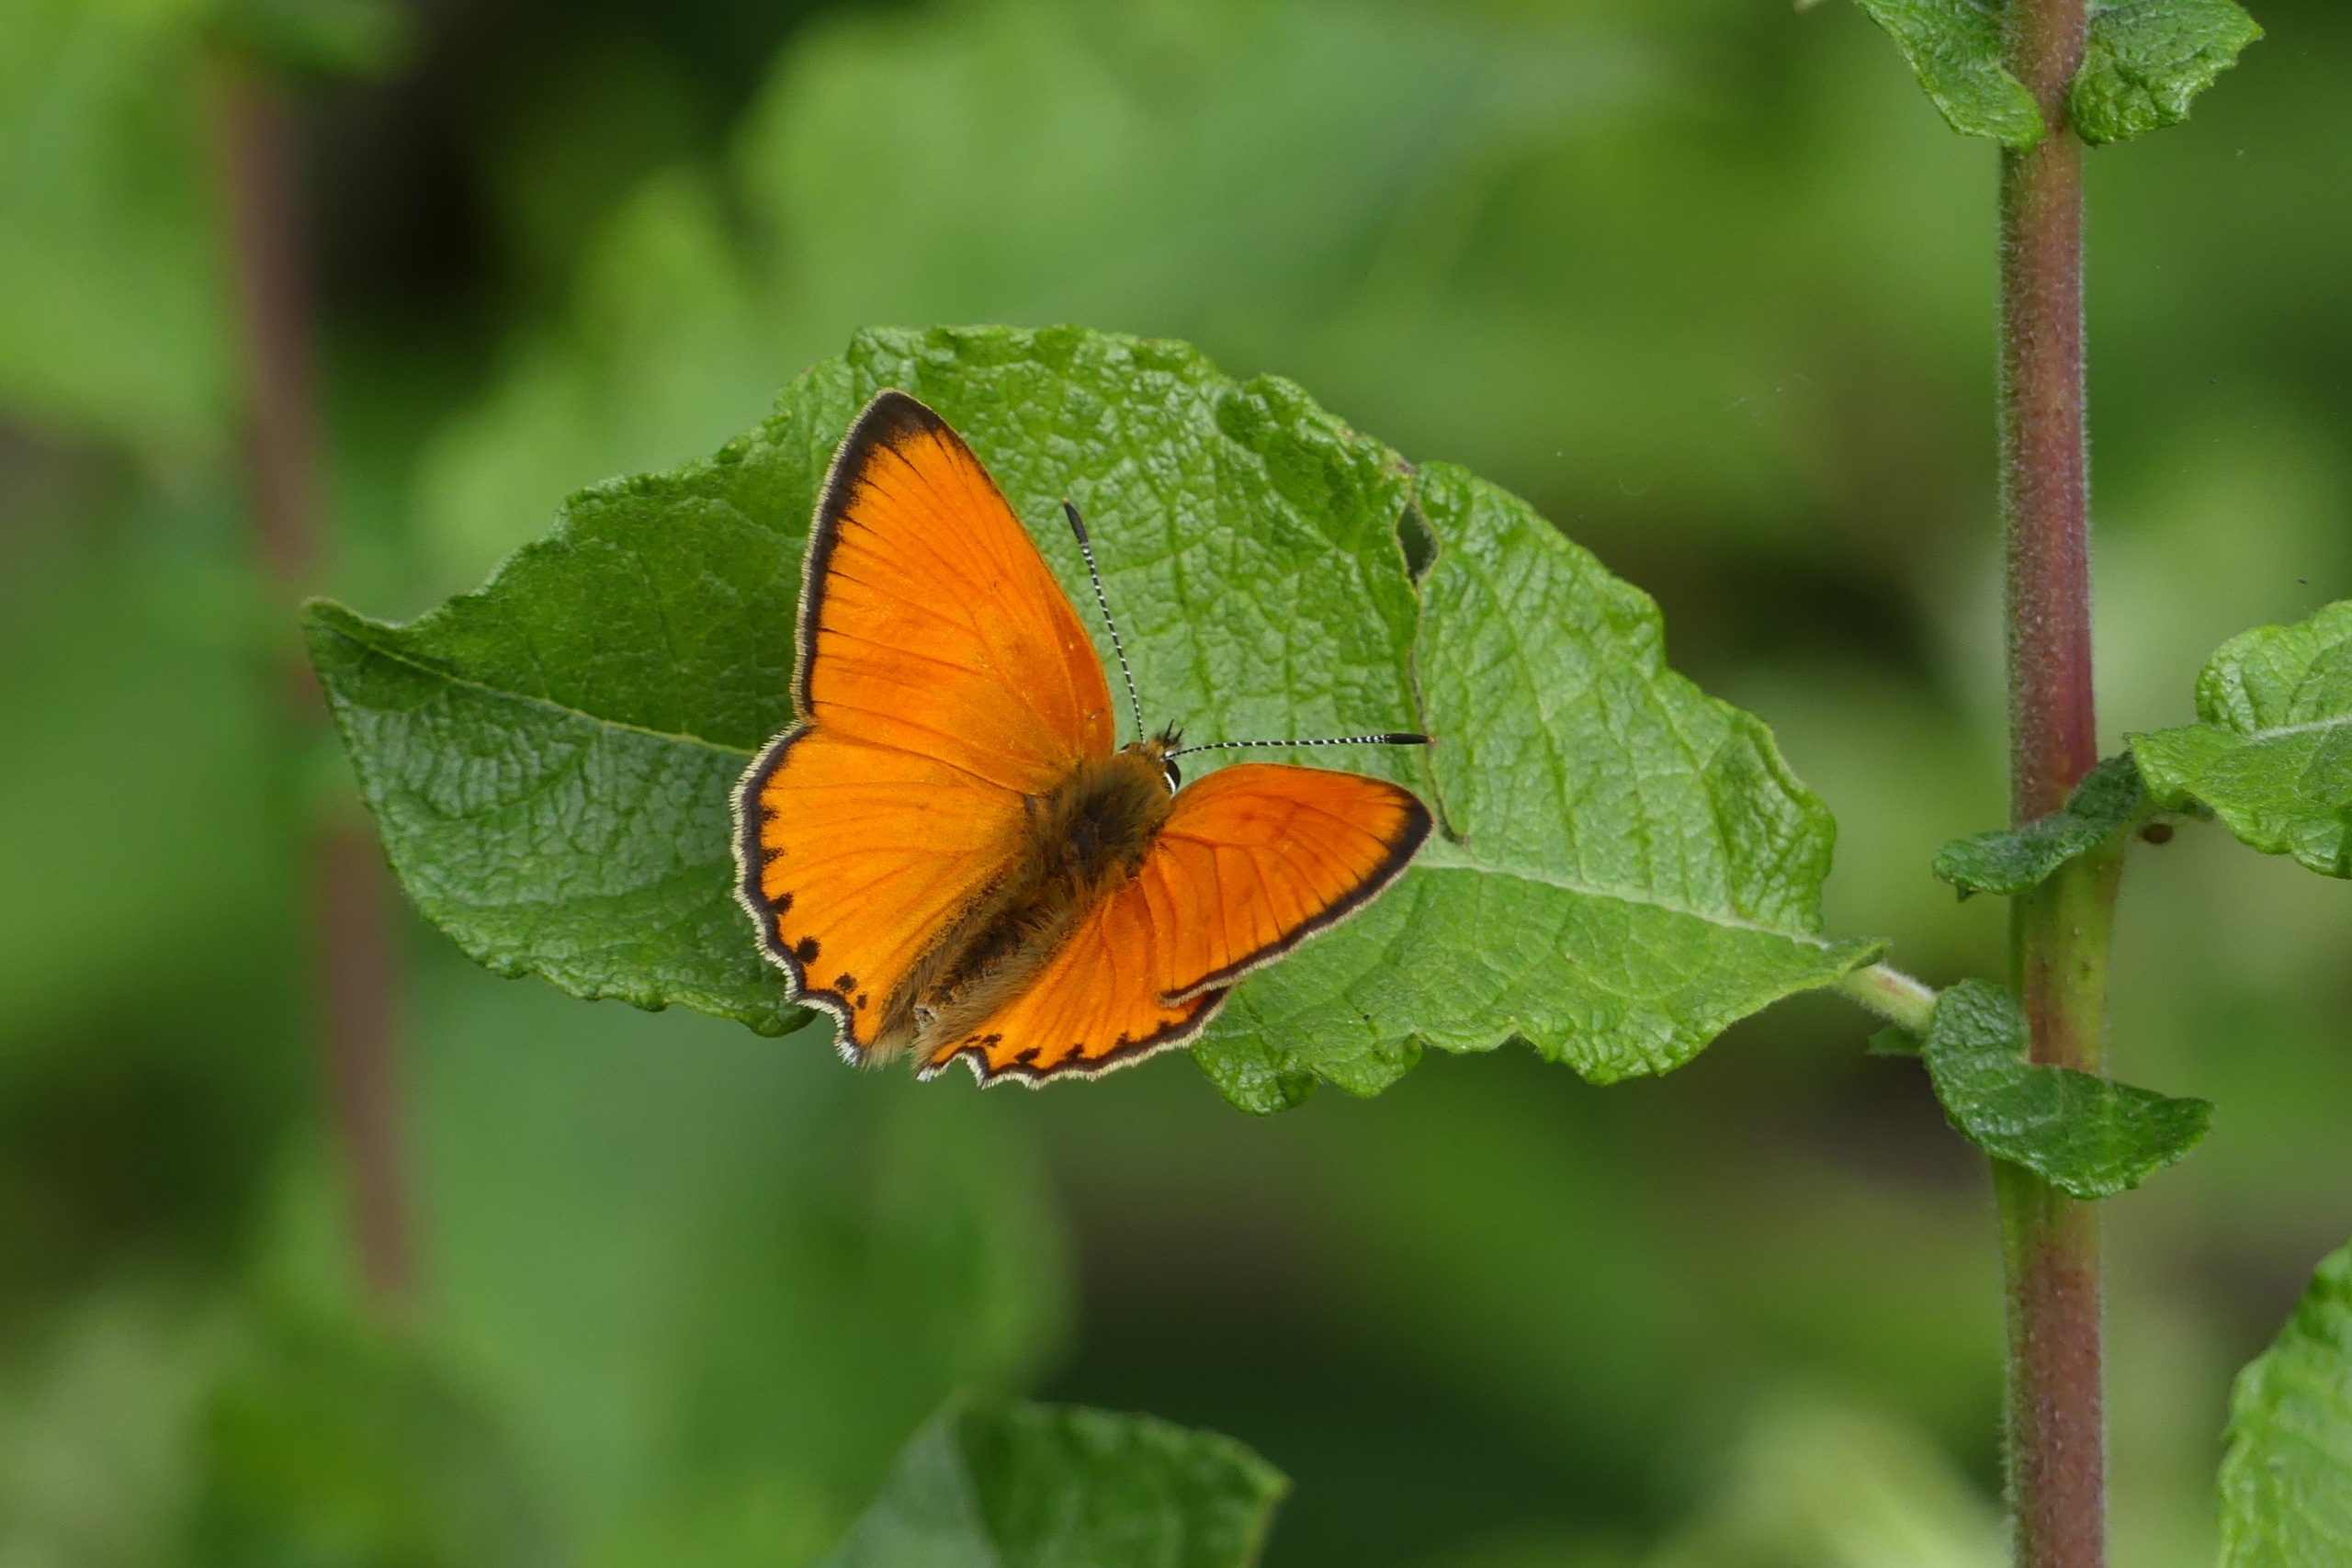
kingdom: Animalia
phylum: Arthropoda
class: Insecta
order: Lepidoptera
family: Lycaenidae
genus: Lycaena
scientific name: Lycaena virgaureae
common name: Dukatsommerfugl
